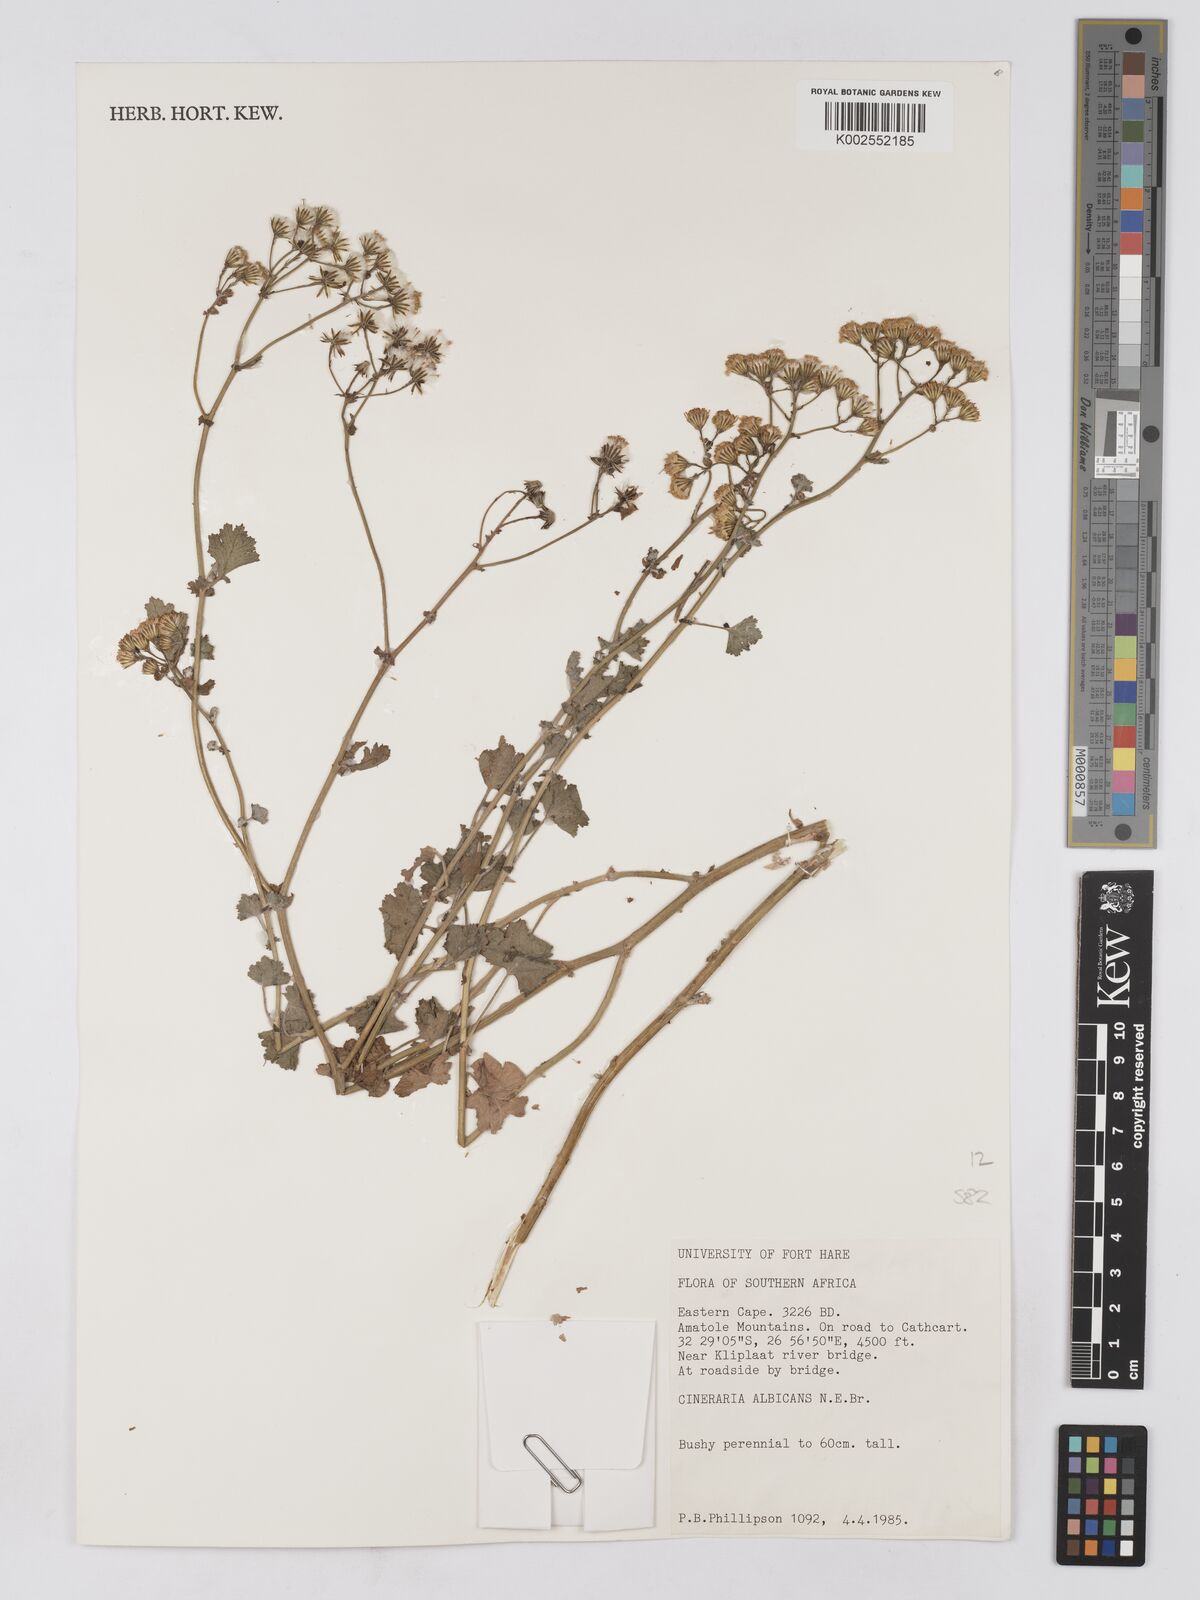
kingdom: Plantae
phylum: Tracheophyta
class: Magnoliopsida
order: Asterales
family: Asteraceae
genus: Cineraria
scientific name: Cineraria albicans
